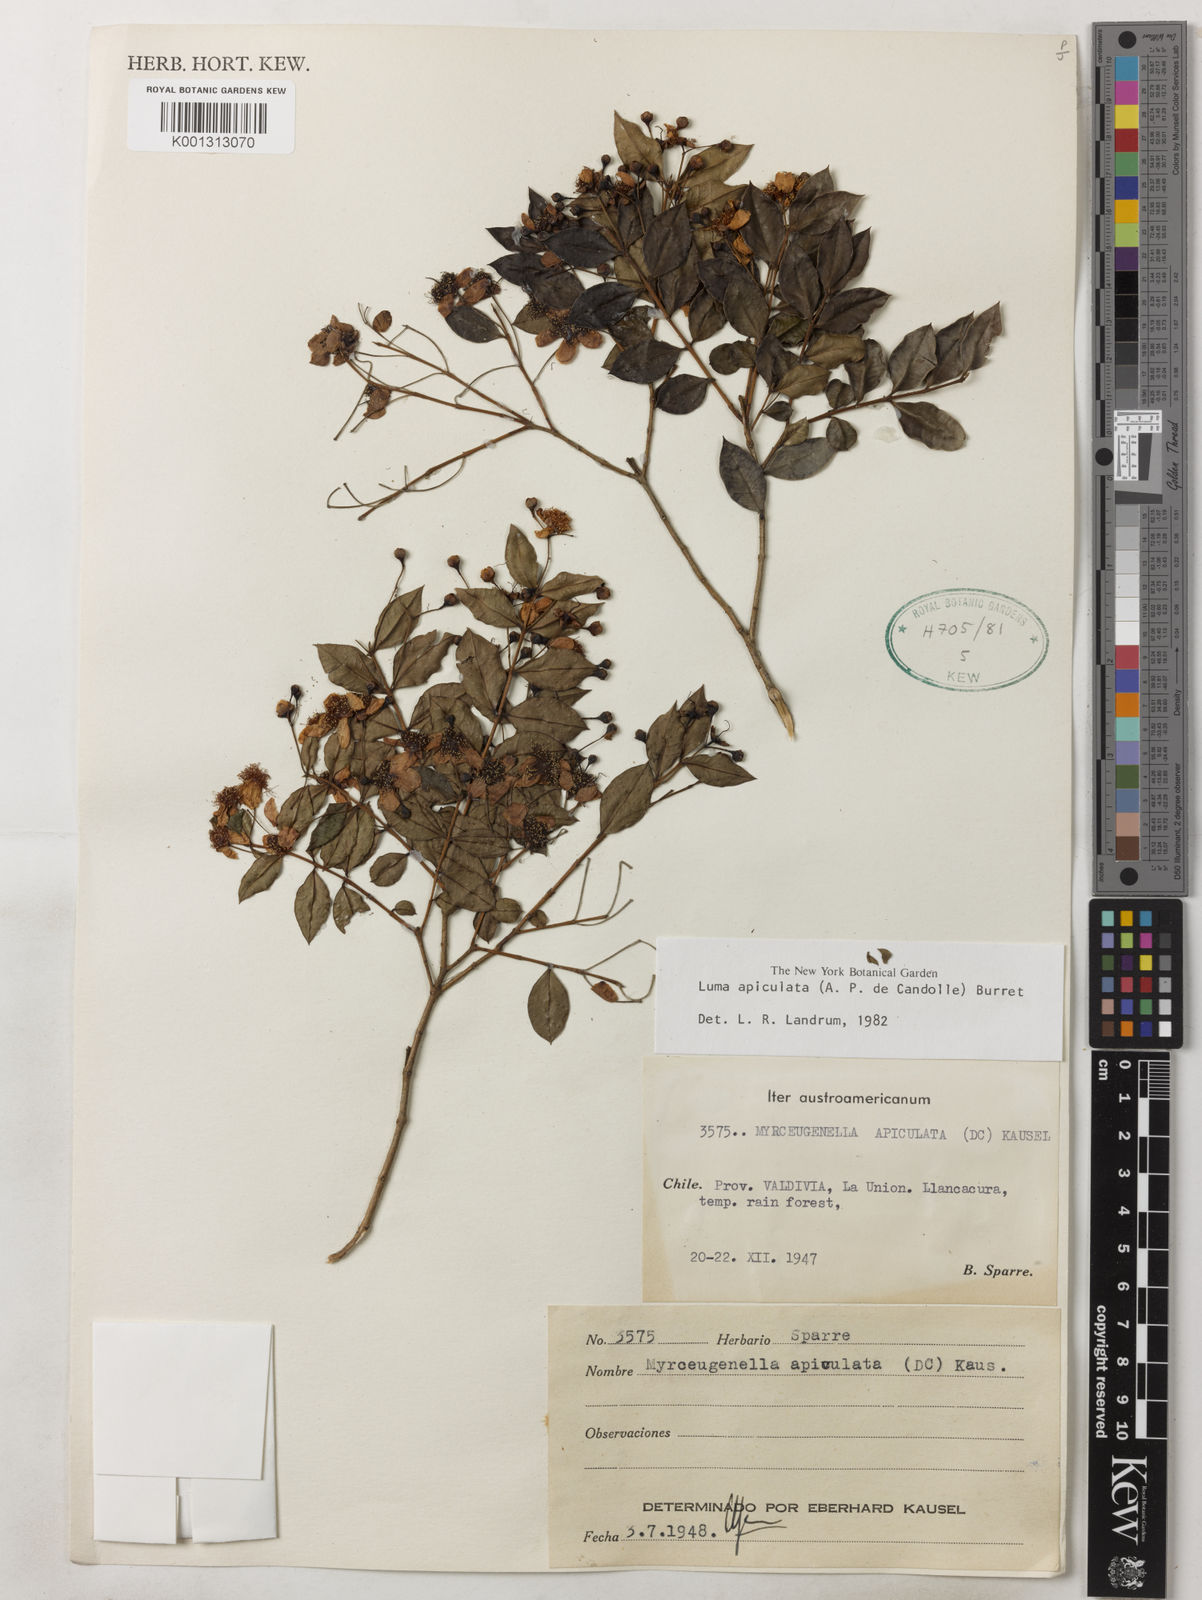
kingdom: Plantae
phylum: Tracheophyta
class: Magnoliopsida
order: Myrtales
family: Myrtaceae
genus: Luma
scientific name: Luma apiculata
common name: Chilean myrtle
